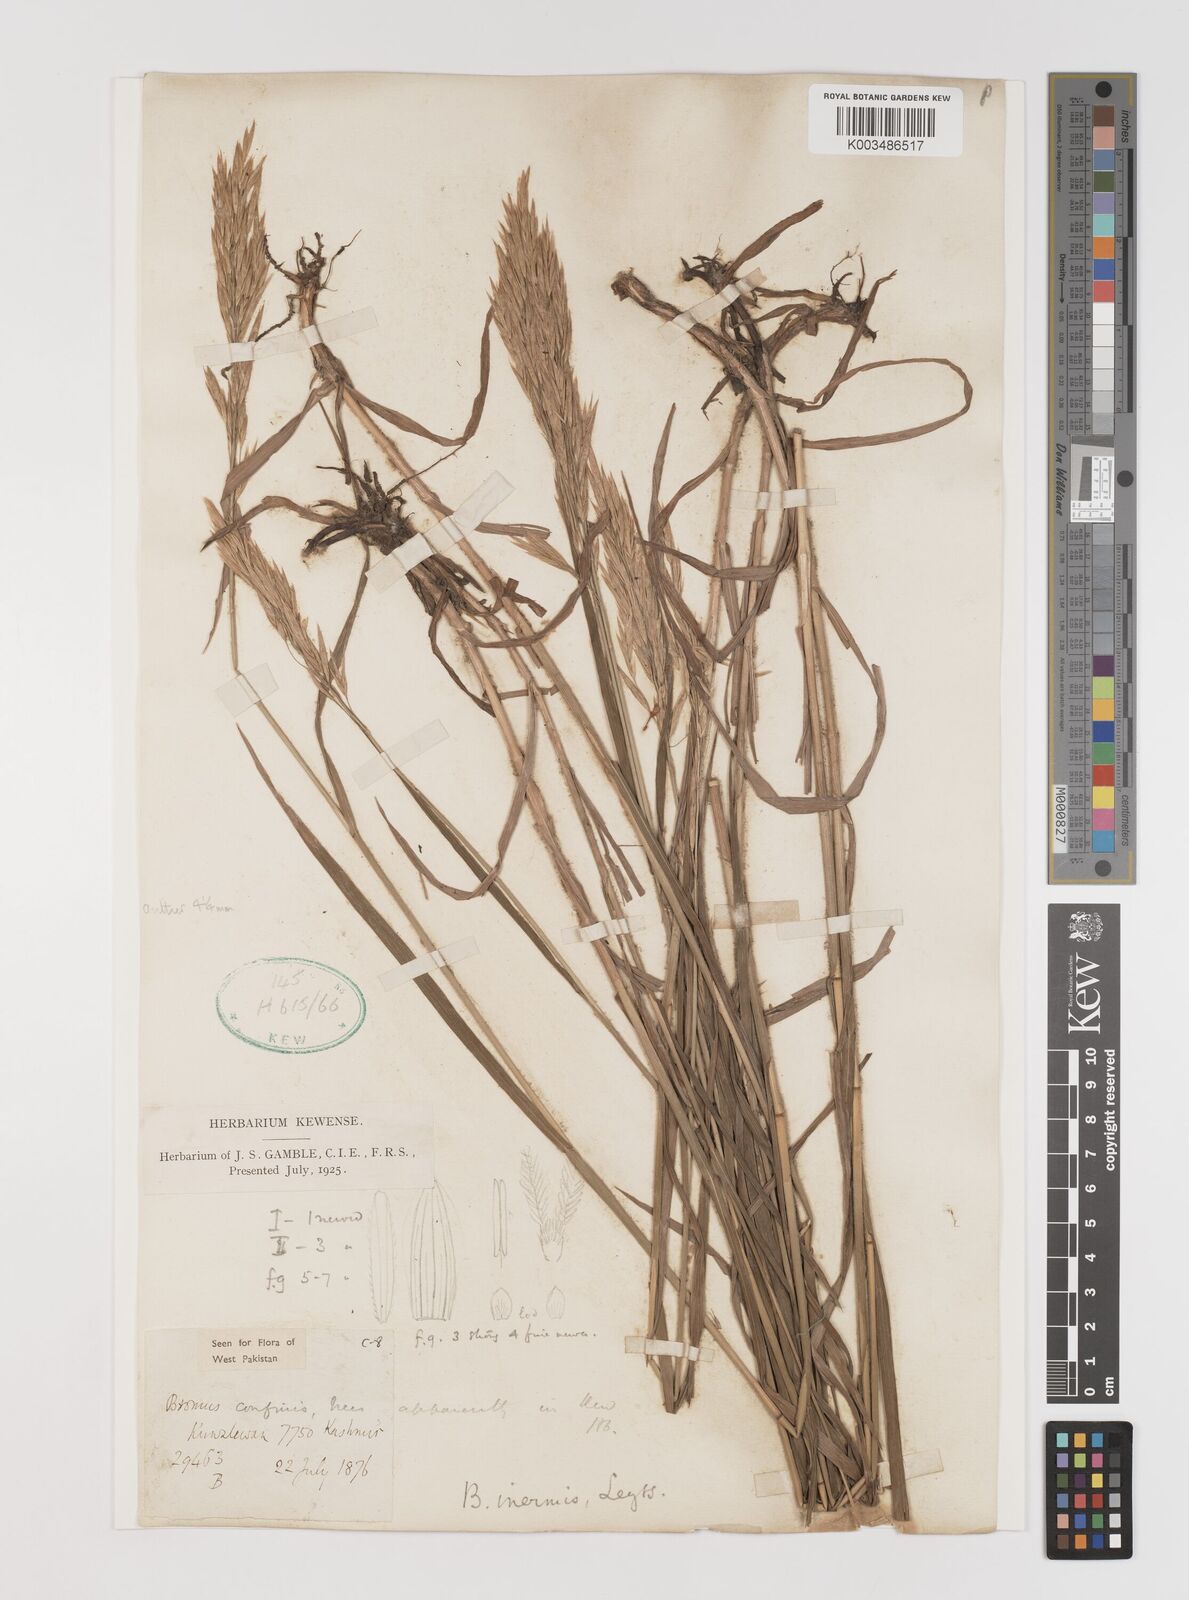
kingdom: Plantae
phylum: Tracheophyta
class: Liliopsida
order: Poales
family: Poaceae
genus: Bromus
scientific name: Bromus inermis
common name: Smooth brome
